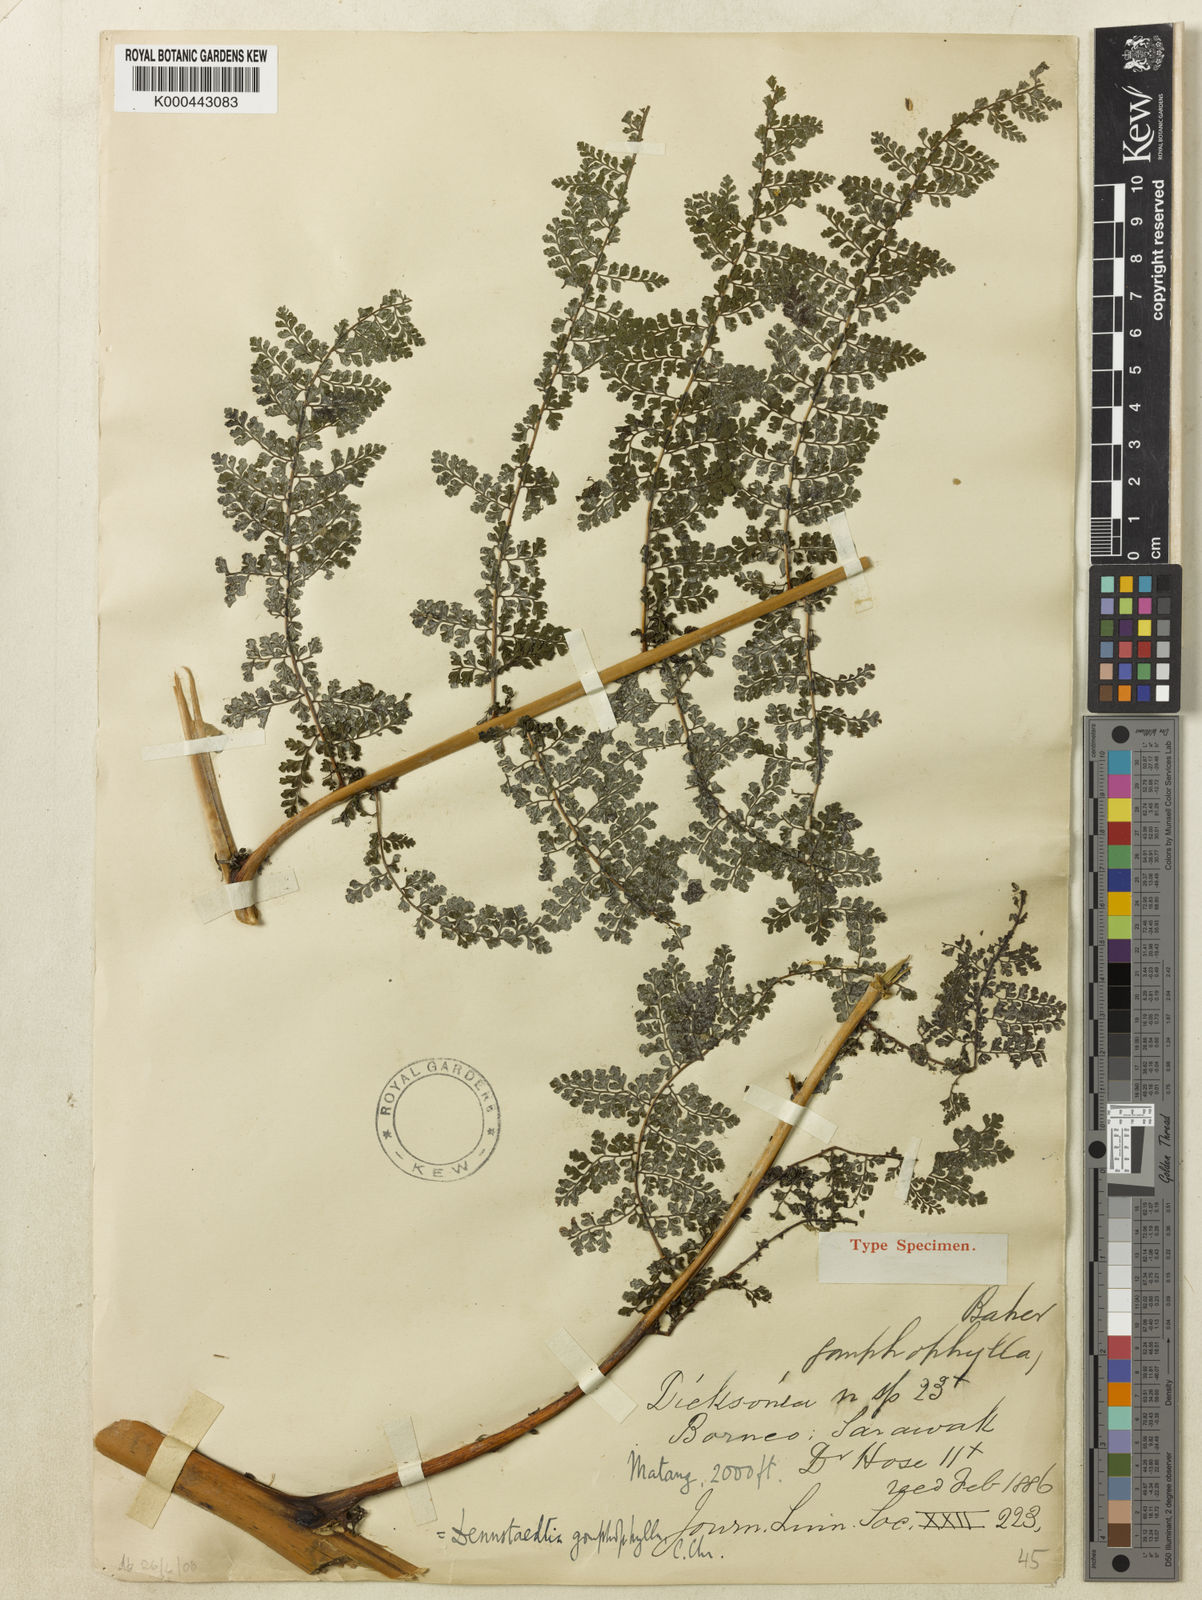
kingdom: Plantae
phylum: Tracheophyta
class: Polypodiopsida
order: Polypodiales
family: Dennstaedtiaceae
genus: Dennstaedtia
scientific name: Dennstaedtia resinifera
